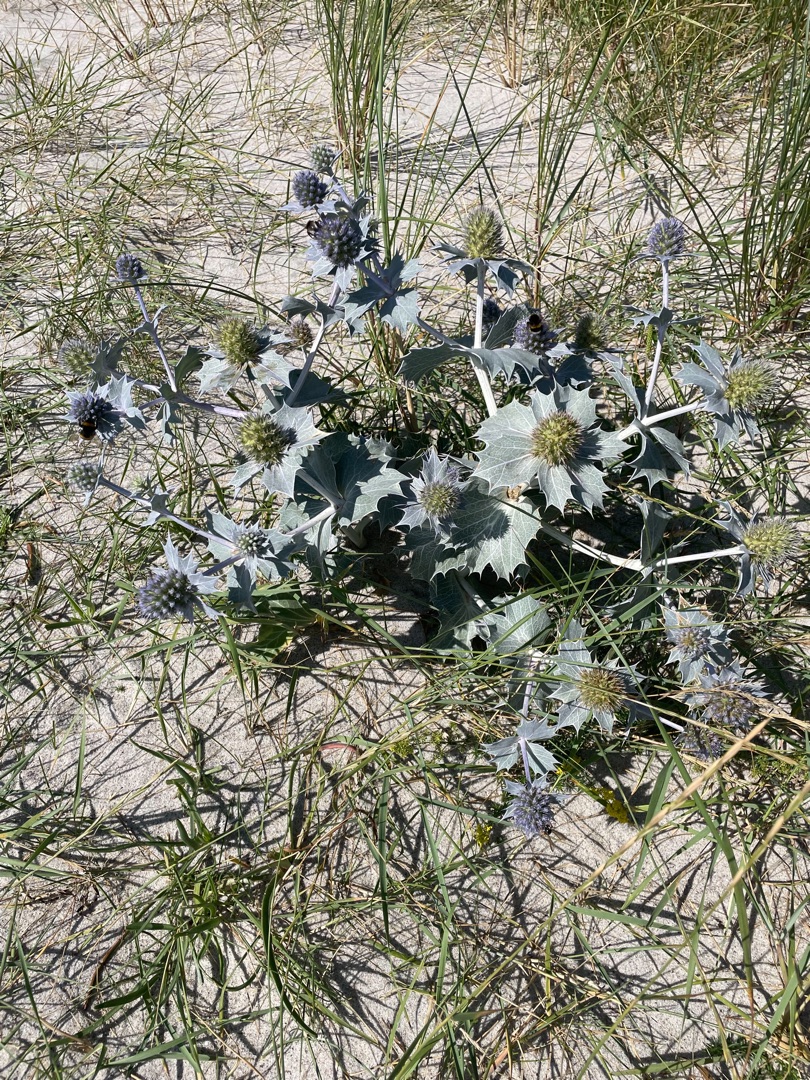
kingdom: Plantae
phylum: Tracheophyta
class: Magnoliopsida
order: Apiales
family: Apiaceae
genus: Eryngium
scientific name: Eryngium maritimum
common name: Strand-mandstro
